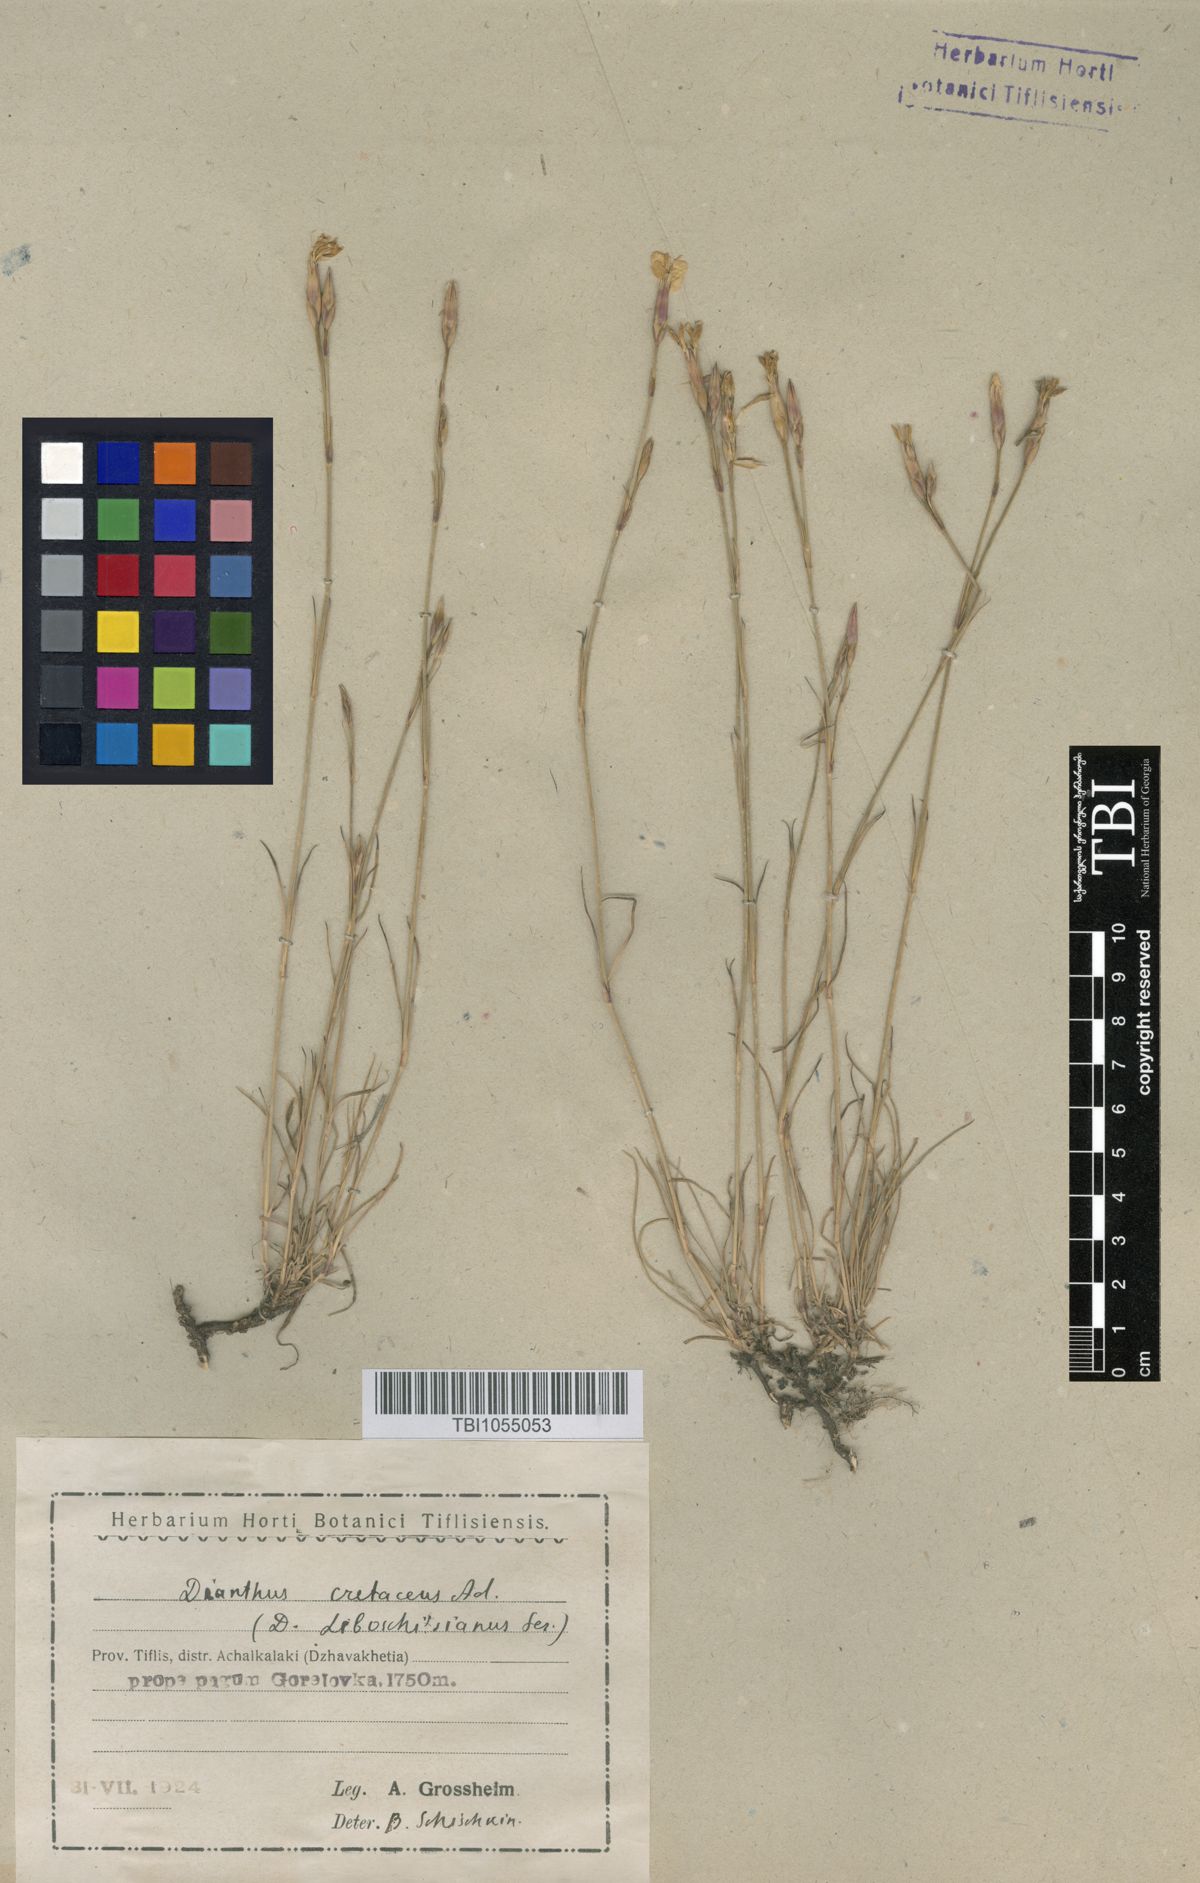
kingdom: Plantae
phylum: Tracheophyta
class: Magnoliopsida
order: Caryophyllales
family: Caryophyllaceae
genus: Dianthus
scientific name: Dianthus cretaceus
